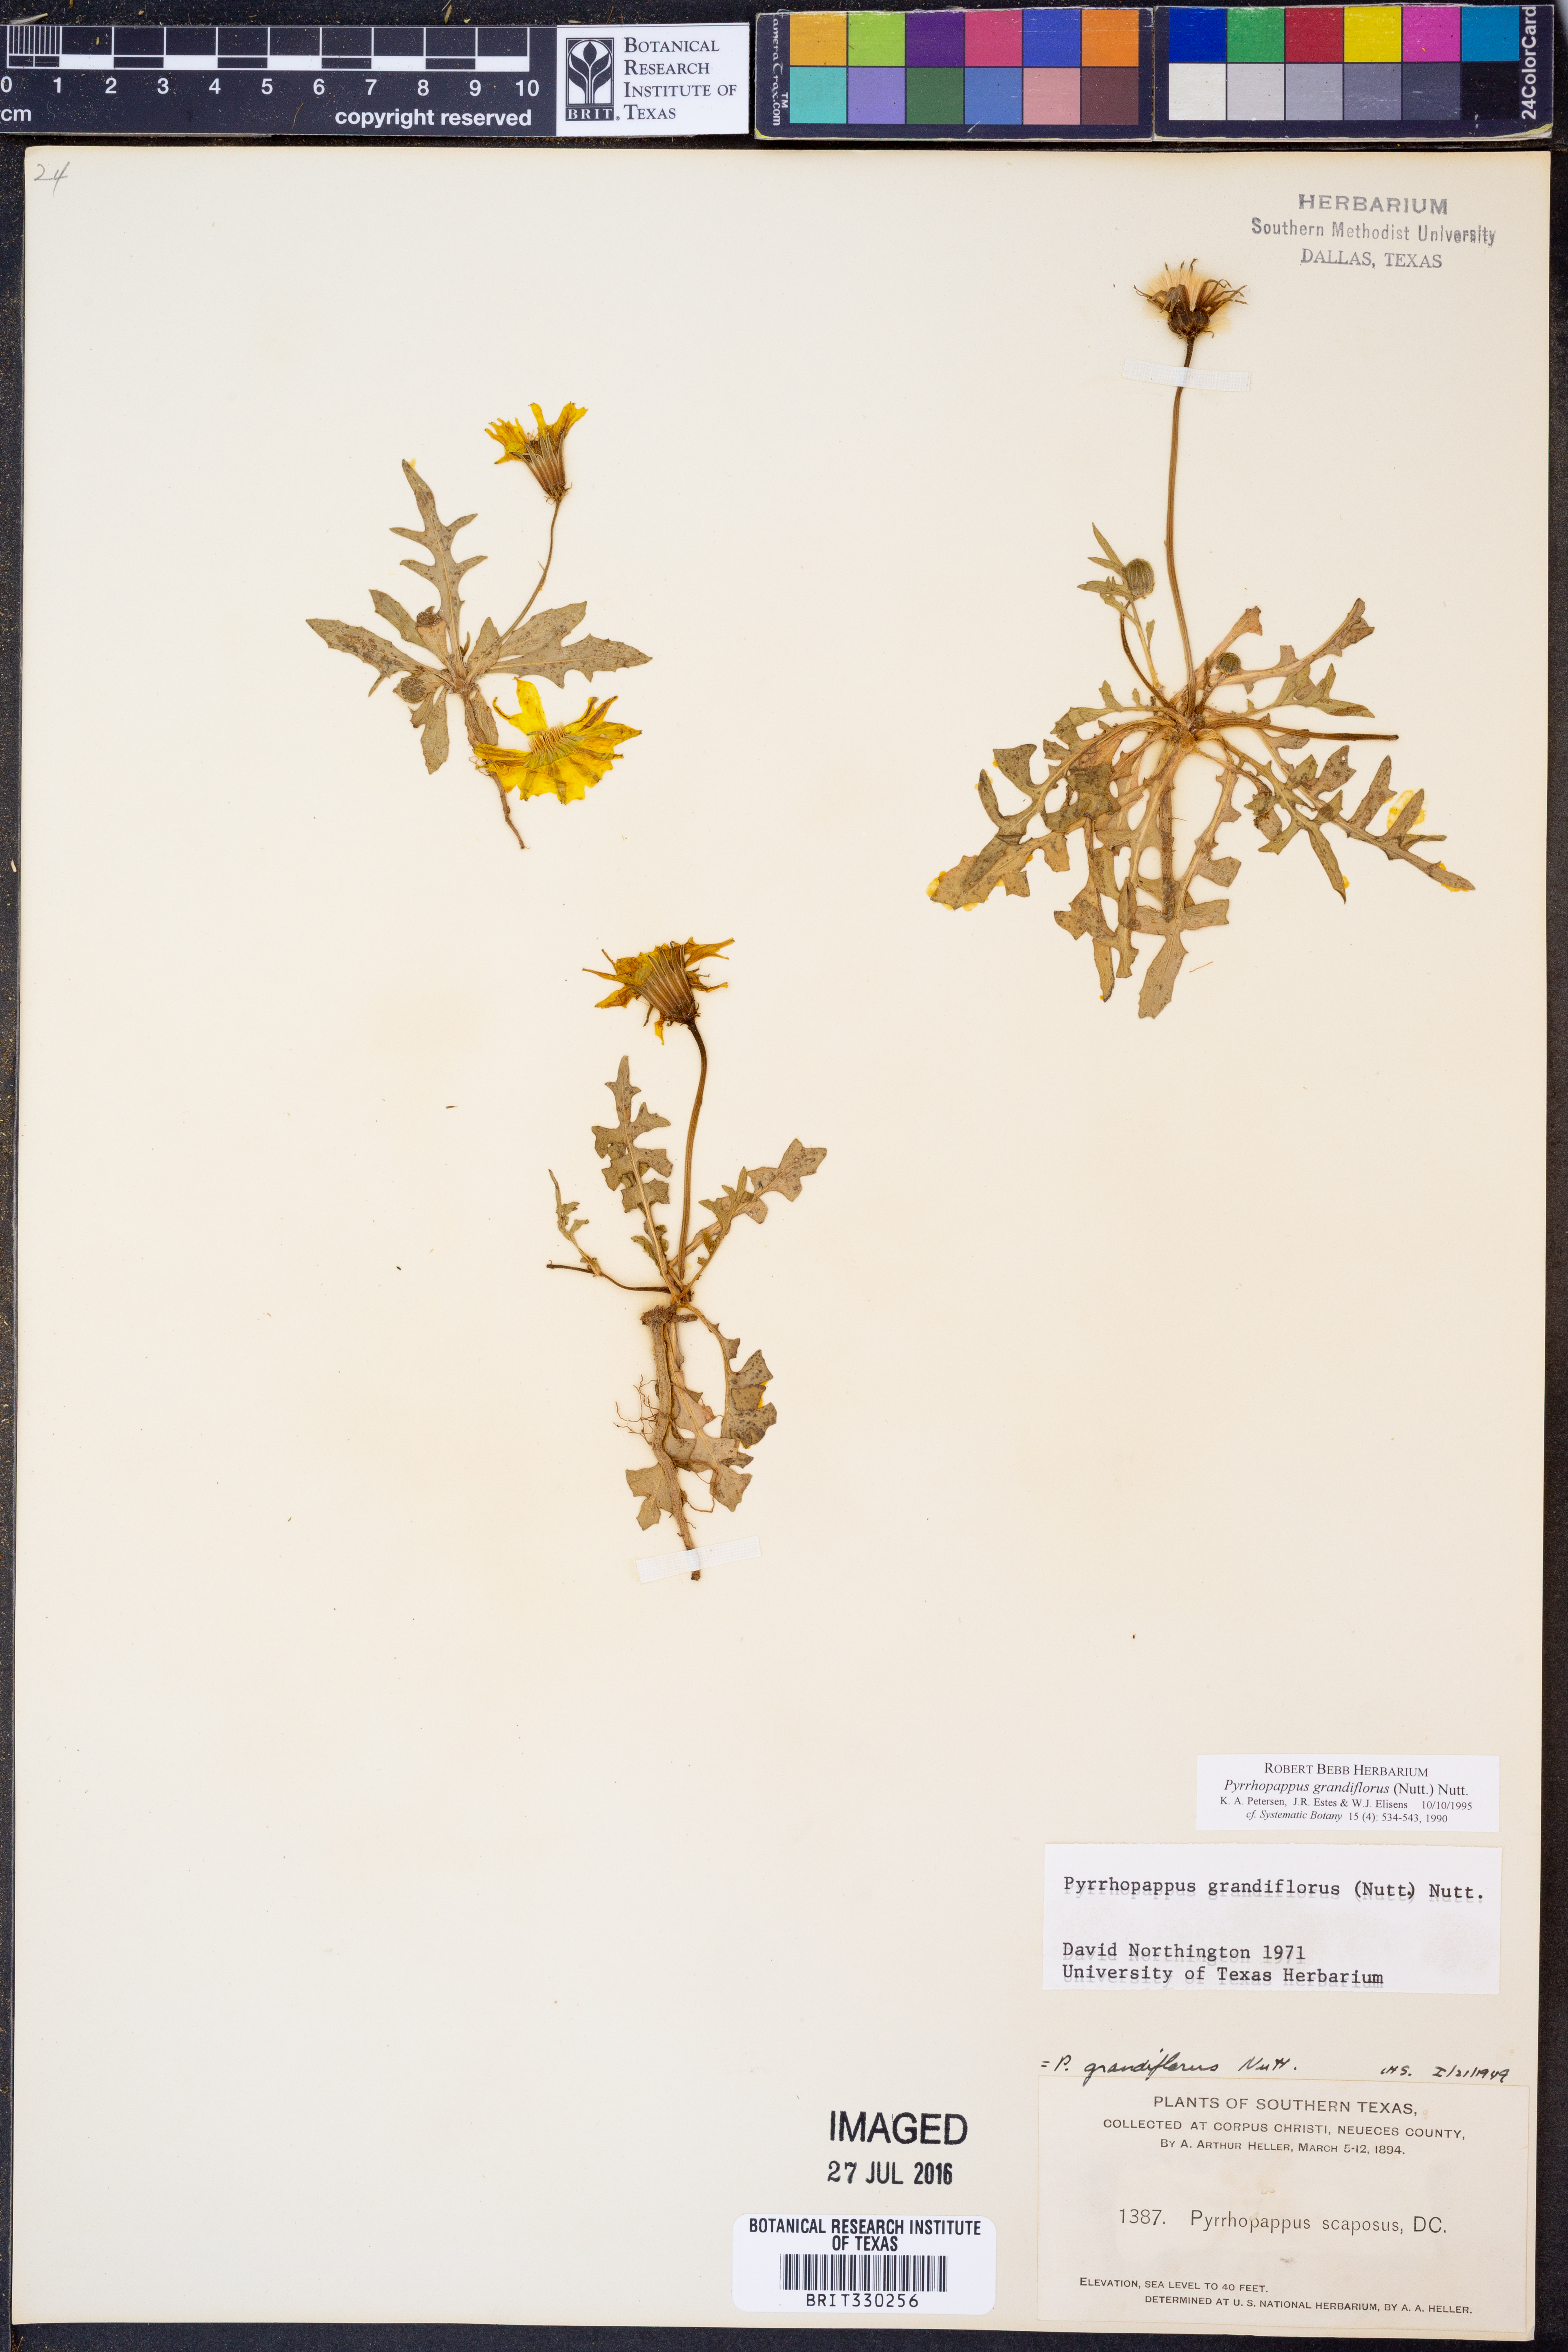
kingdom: Plantae
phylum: Tracheophyta
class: Magnoliopsida
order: Asterales
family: Asteraceae
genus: Pyrrhopappus
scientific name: Pyrrhopappus grandiflorus
